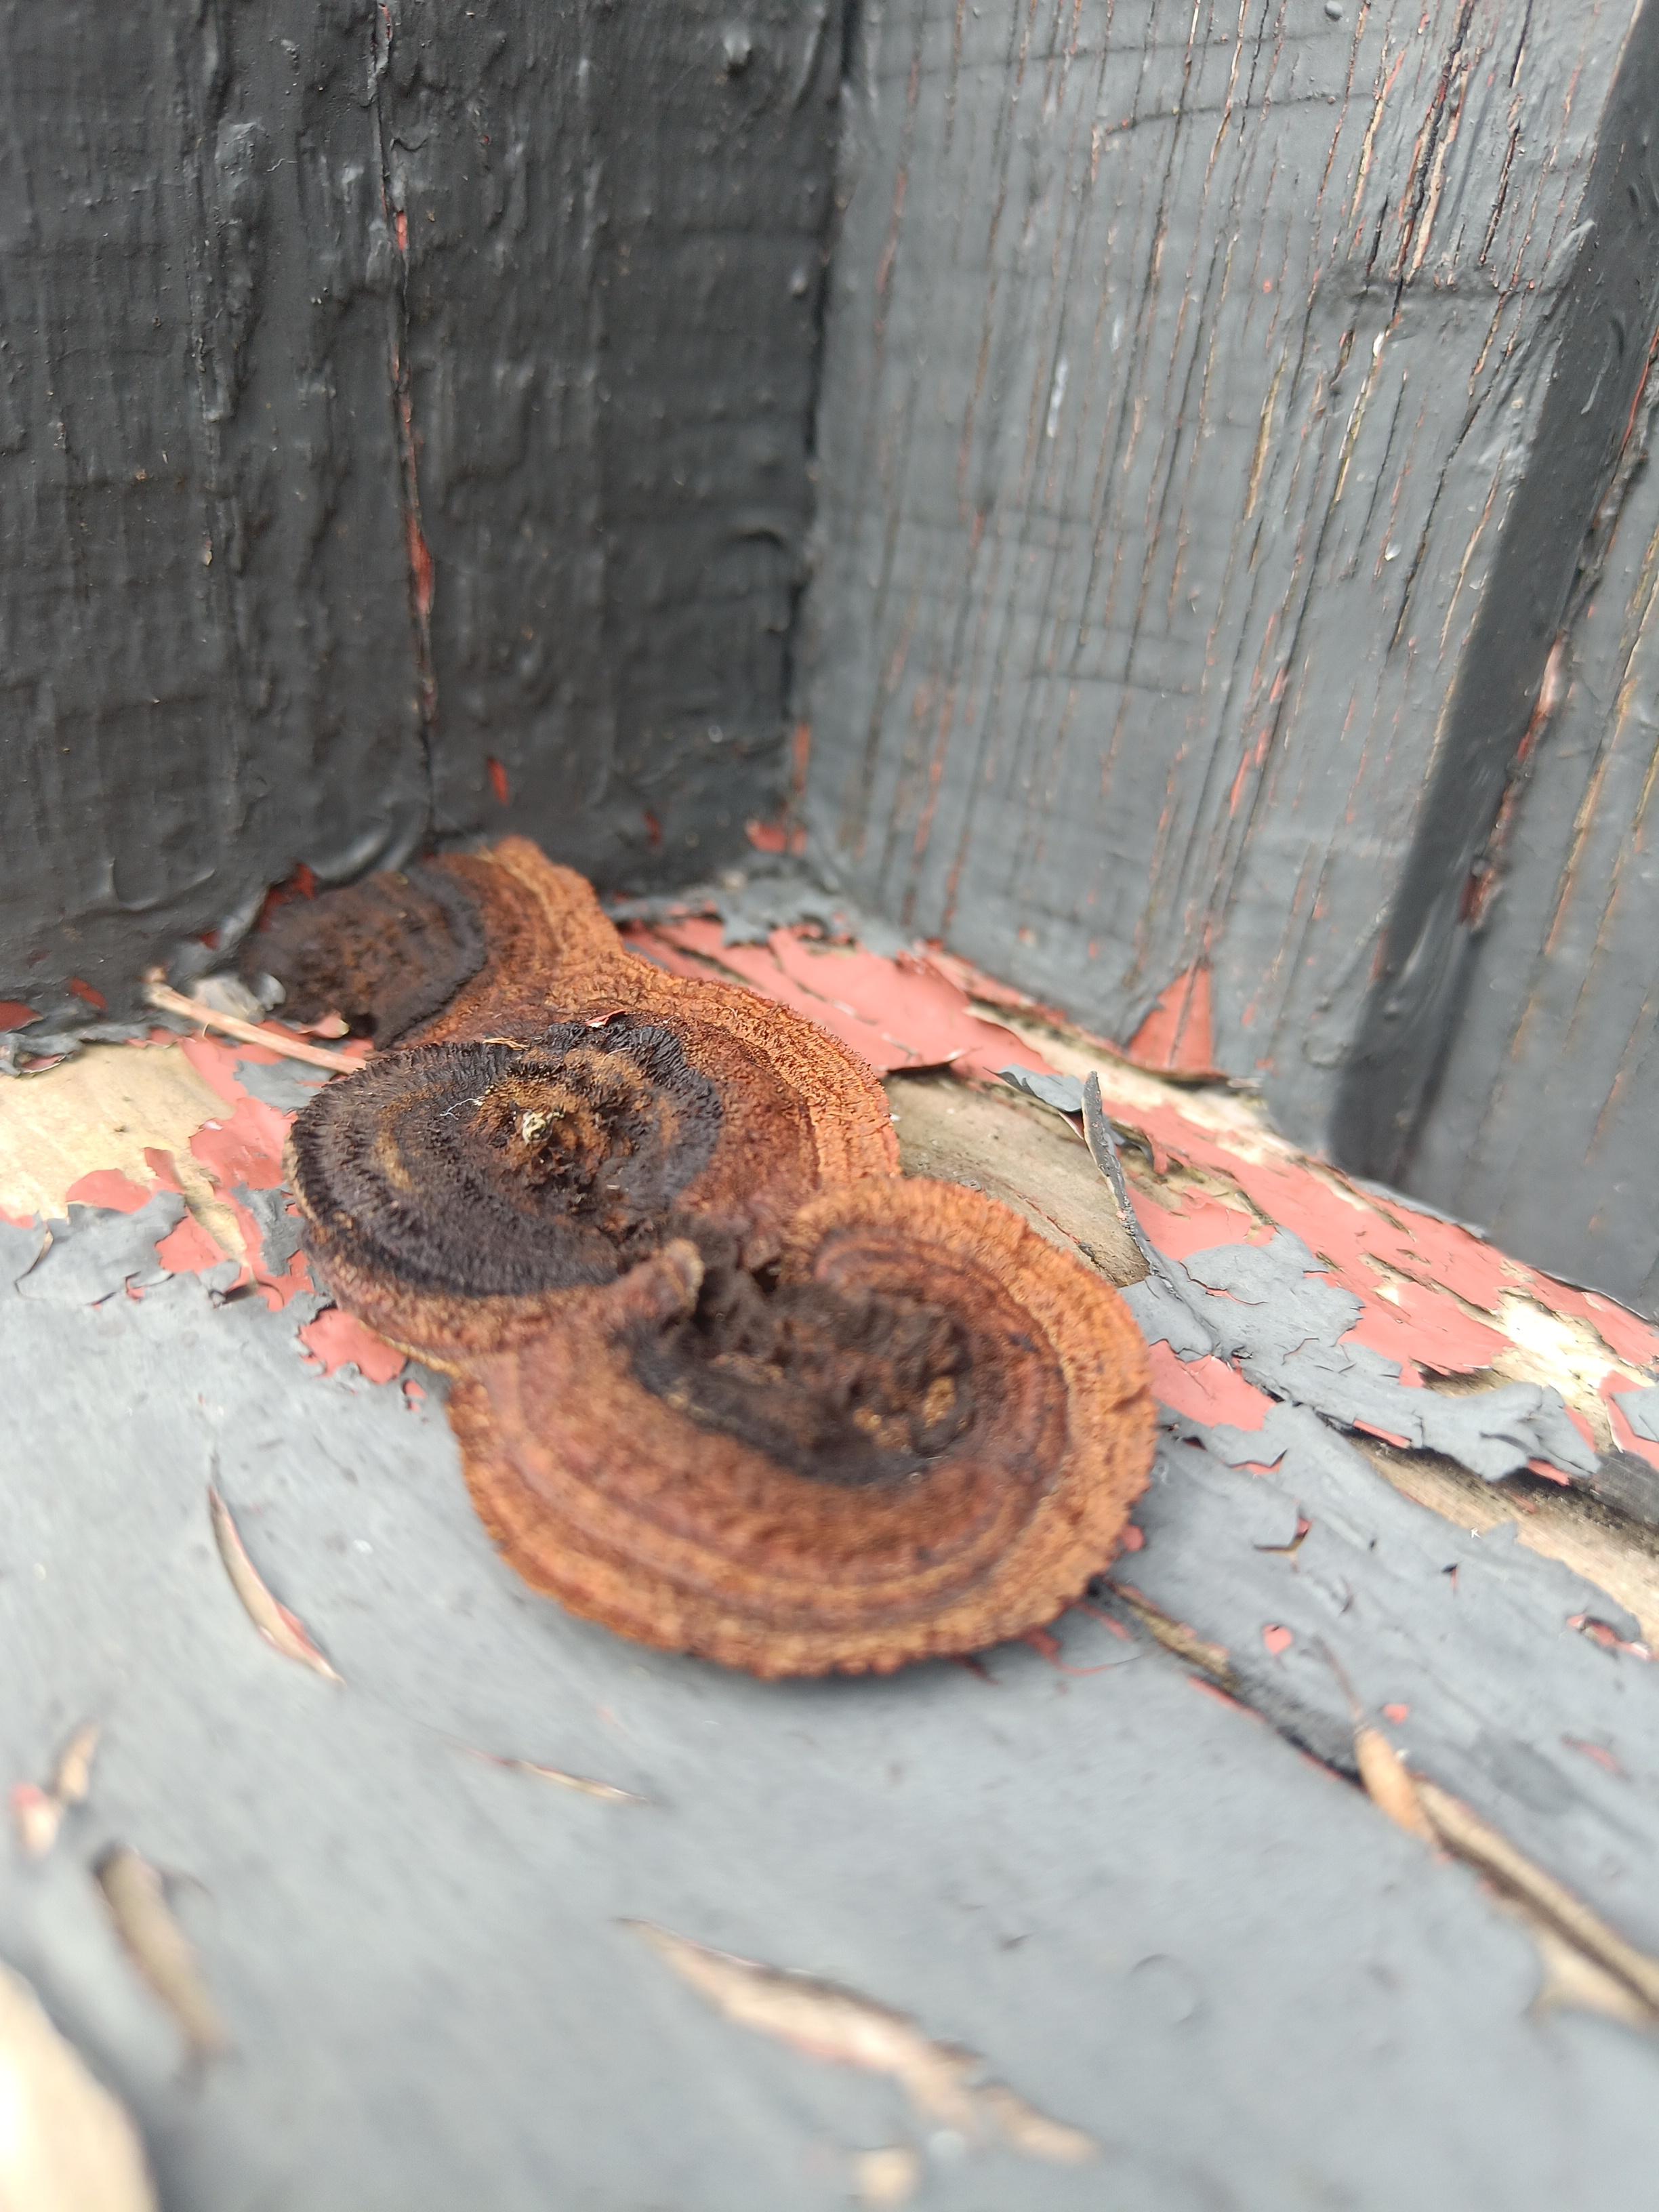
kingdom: Fungi
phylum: Basidiomycota
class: Agaricomycetes
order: Gloeophyllales
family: Gloeophyllaceae
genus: Gloeophyllum
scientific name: Gloeophyllum
